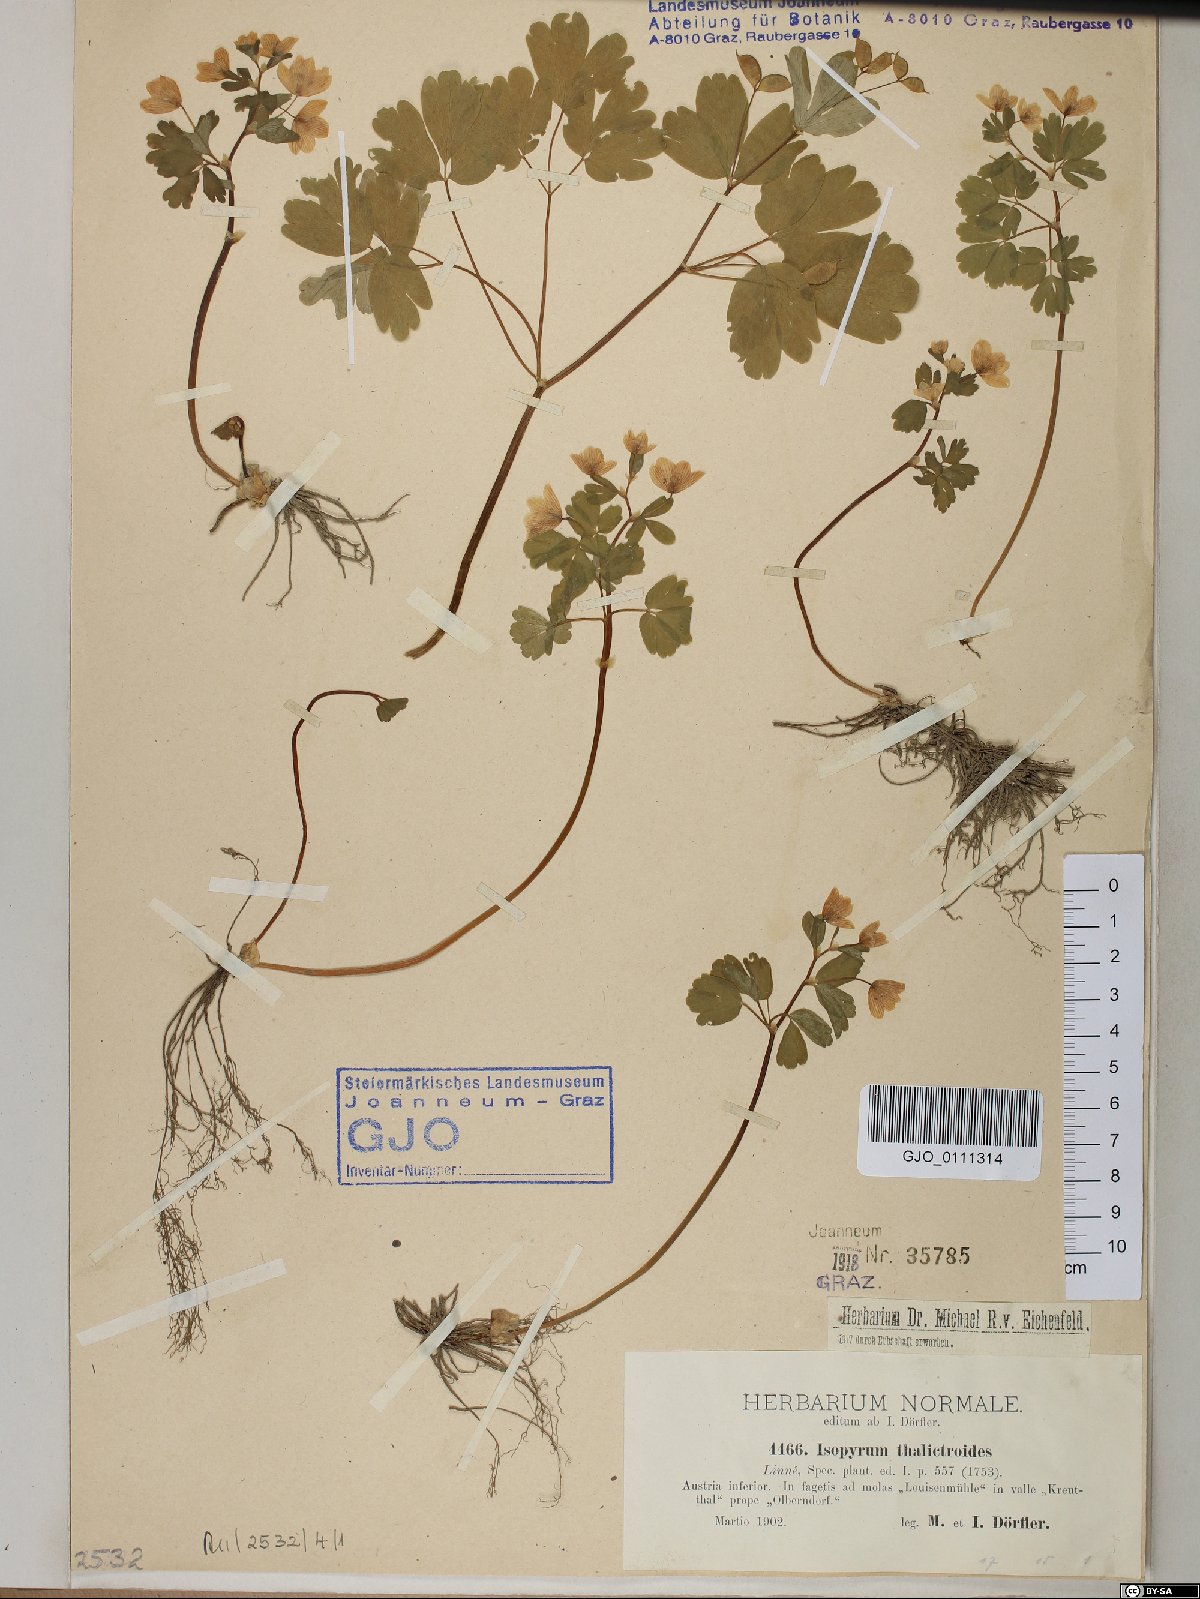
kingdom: Plantae
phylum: Tracheophyta
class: Magnoliopsida
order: Ranunculales
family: Ranunculaceae
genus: Isopyrum
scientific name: Isopyrum thalictroides
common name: Isopyrum
